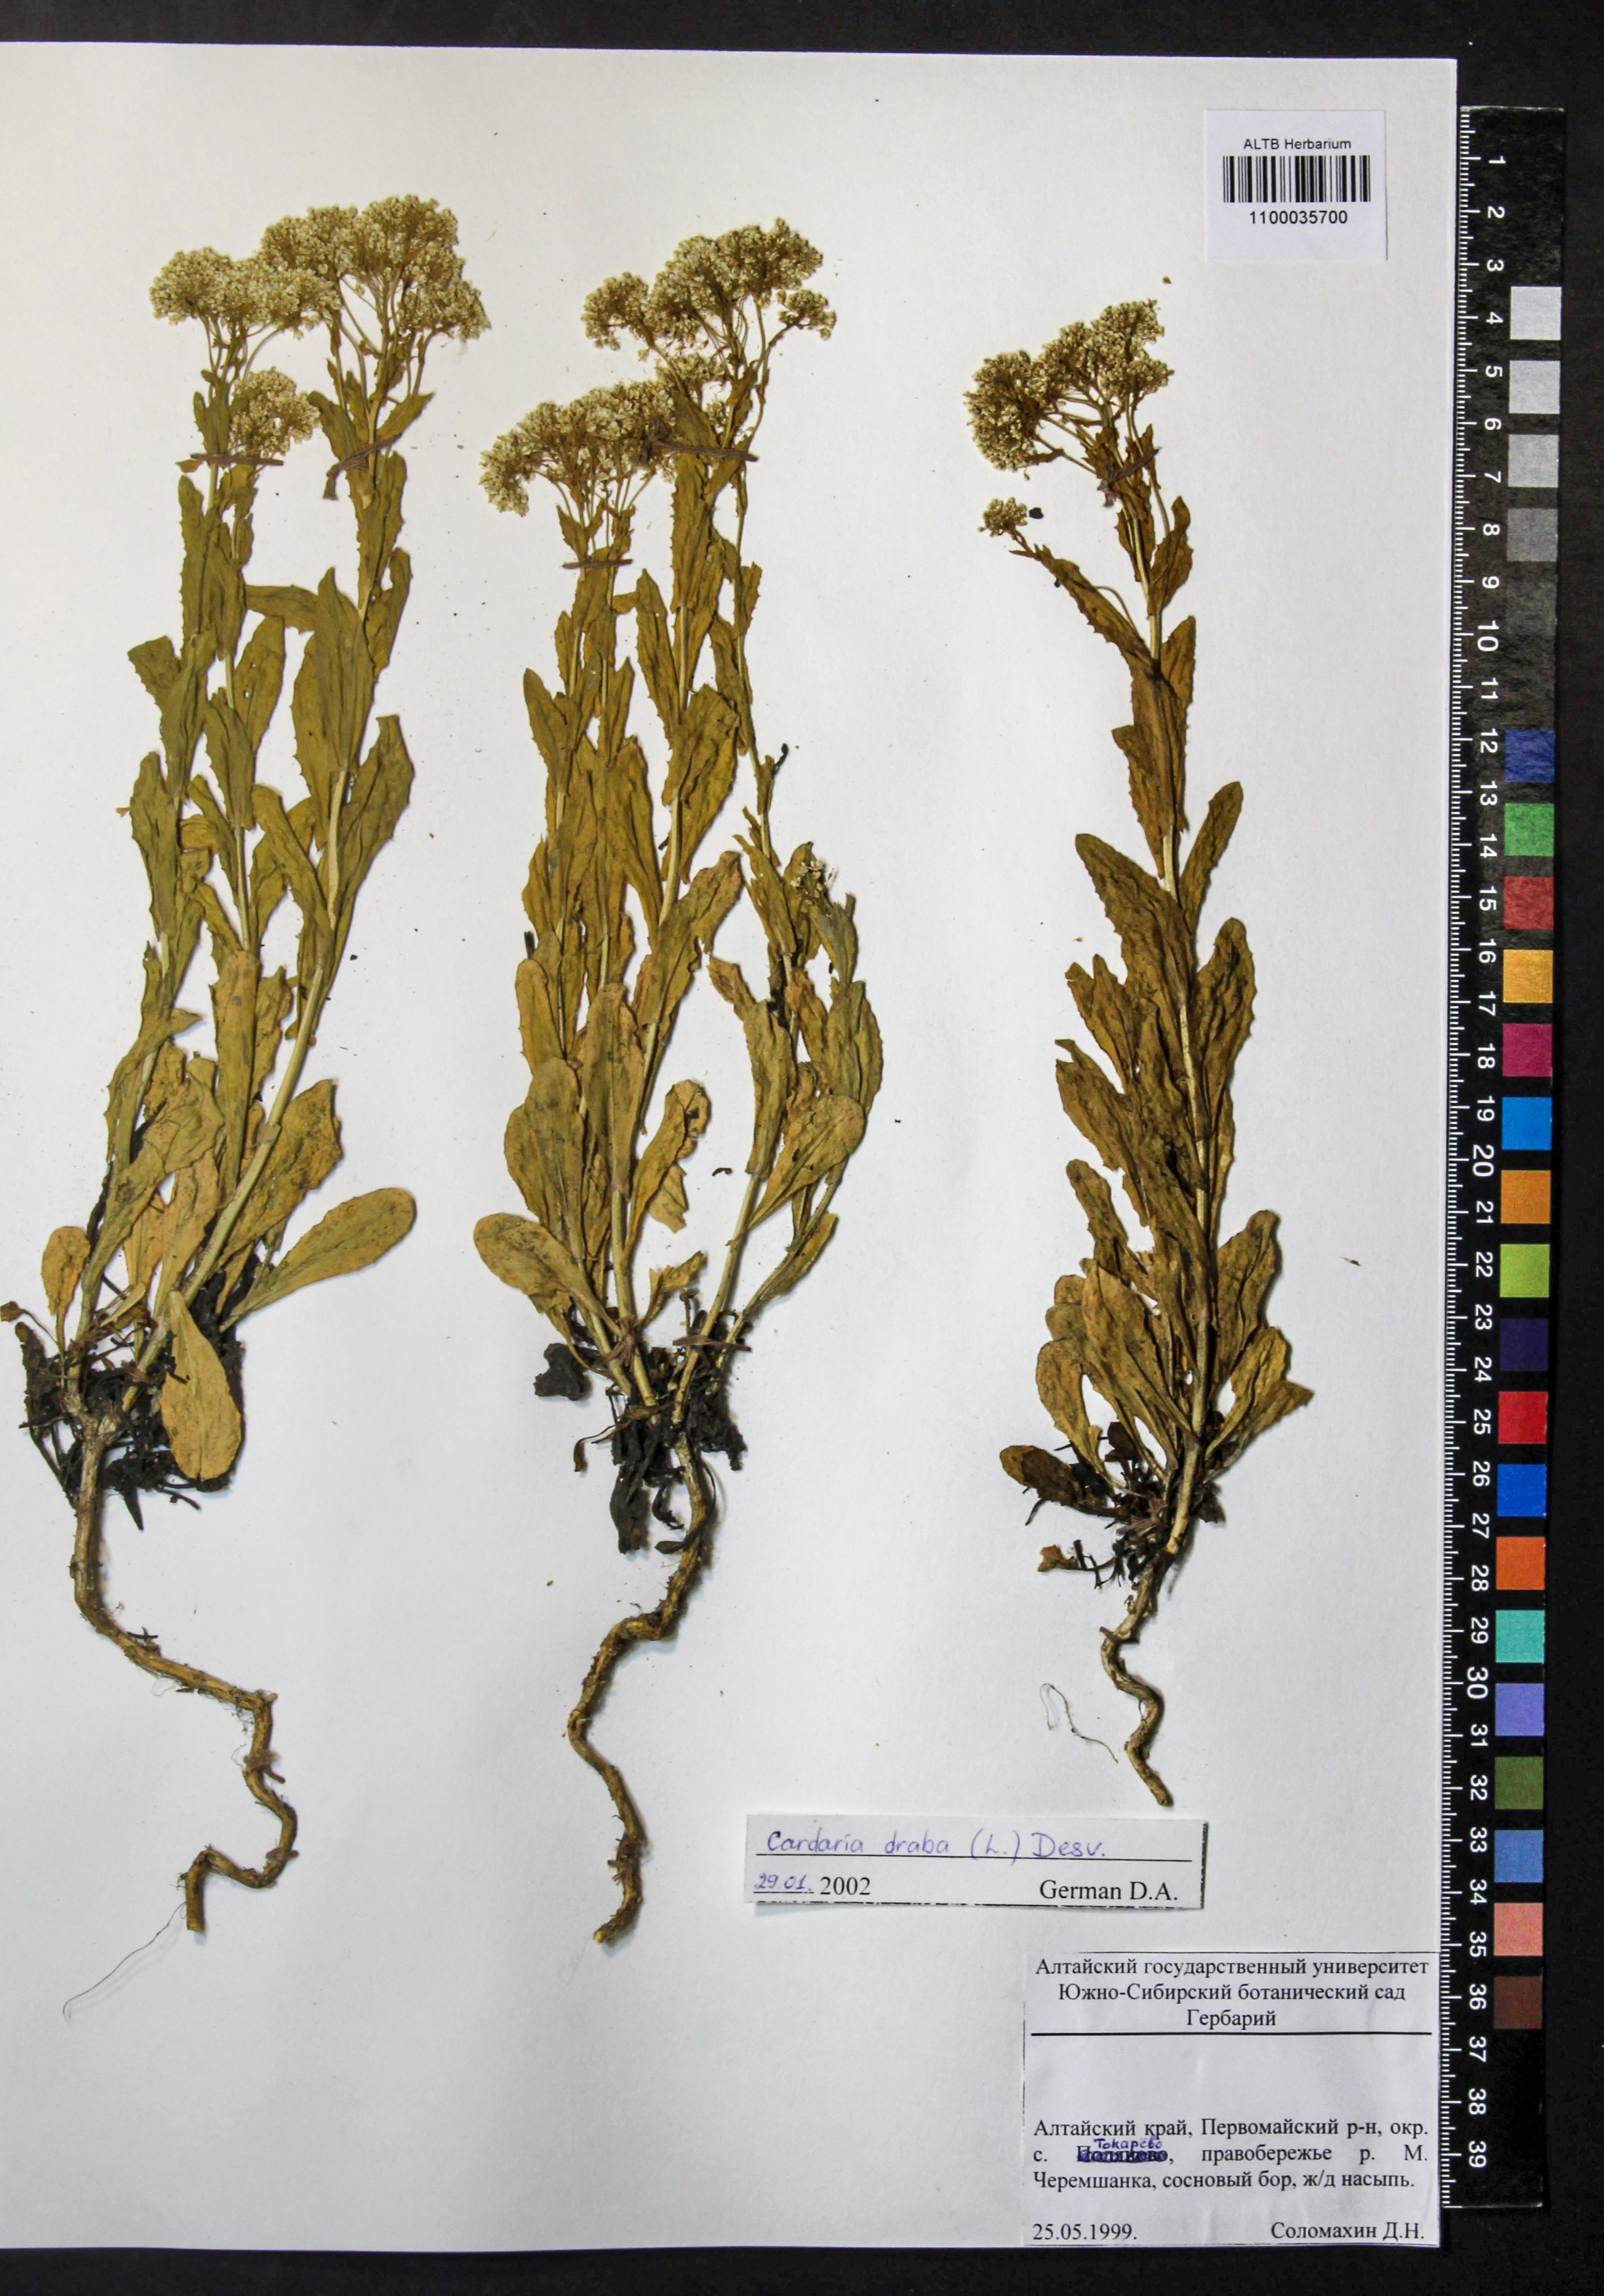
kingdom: Plantae
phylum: Tracheophyta
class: Magnoliopsida
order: Brassicales
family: Brassicaceae
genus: Lepidium
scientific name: Lepidium draba
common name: Hoary cress
